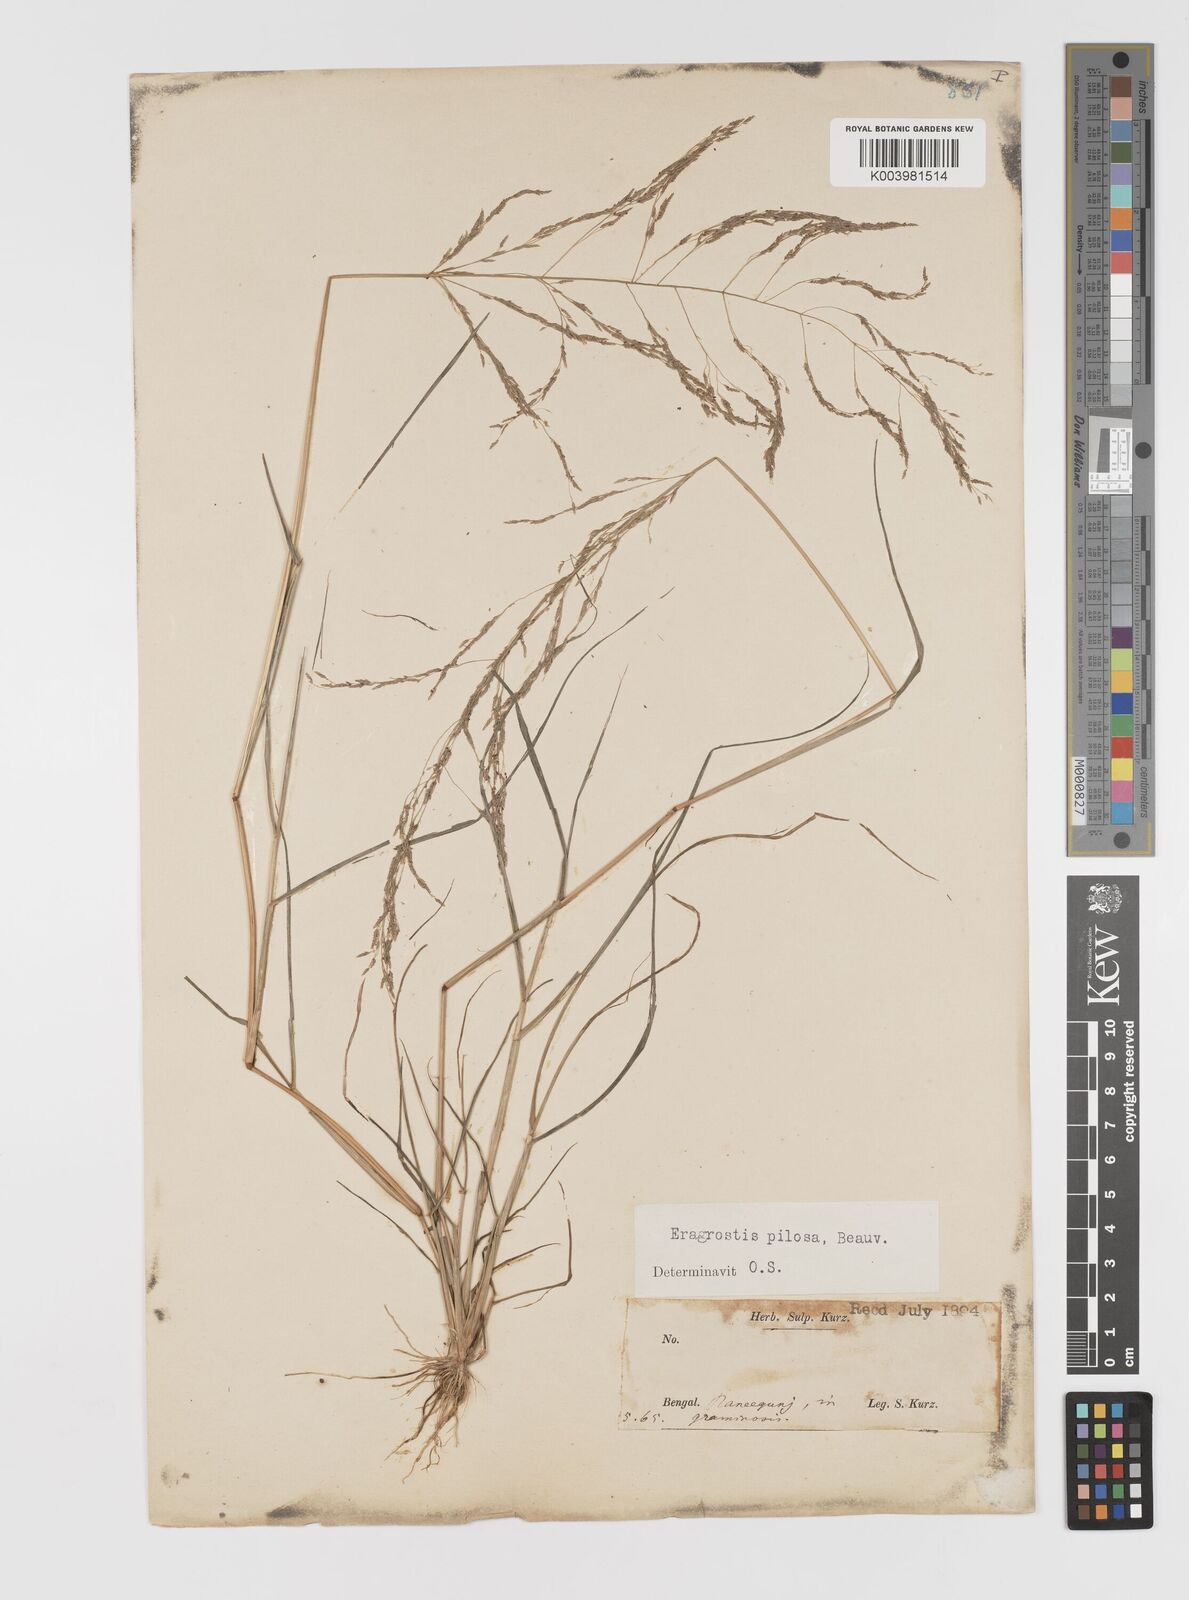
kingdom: Plantae
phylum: Tracheophyta
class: Liliopsida
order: Poales
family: Poaceae
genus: Eragrostis
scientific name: Eragrostis pilosa
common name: Indian lovegrass
